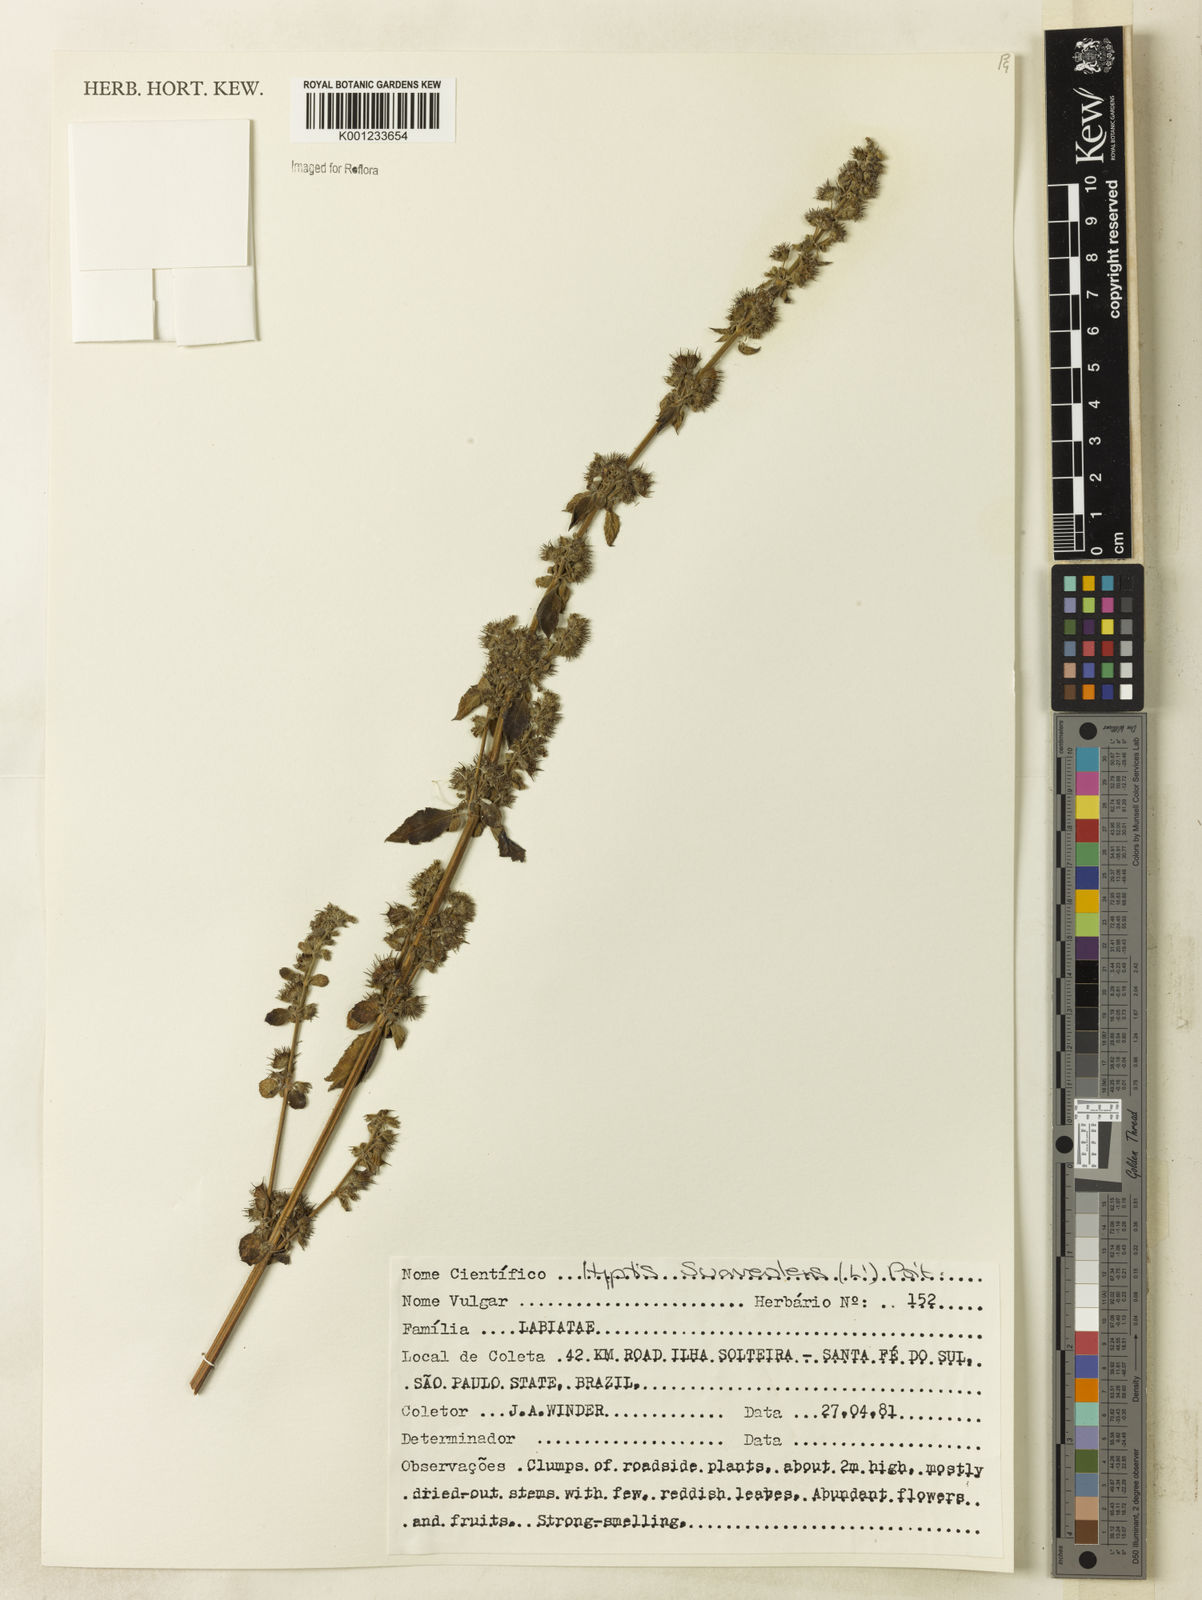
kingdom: Plantae
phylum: Tracheophyta
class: Magnoliopsida
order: Lamiales
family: Lamiaceae
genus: Mesosphaerum
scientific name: Mesosphaerum suaveolens
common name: Pignut
